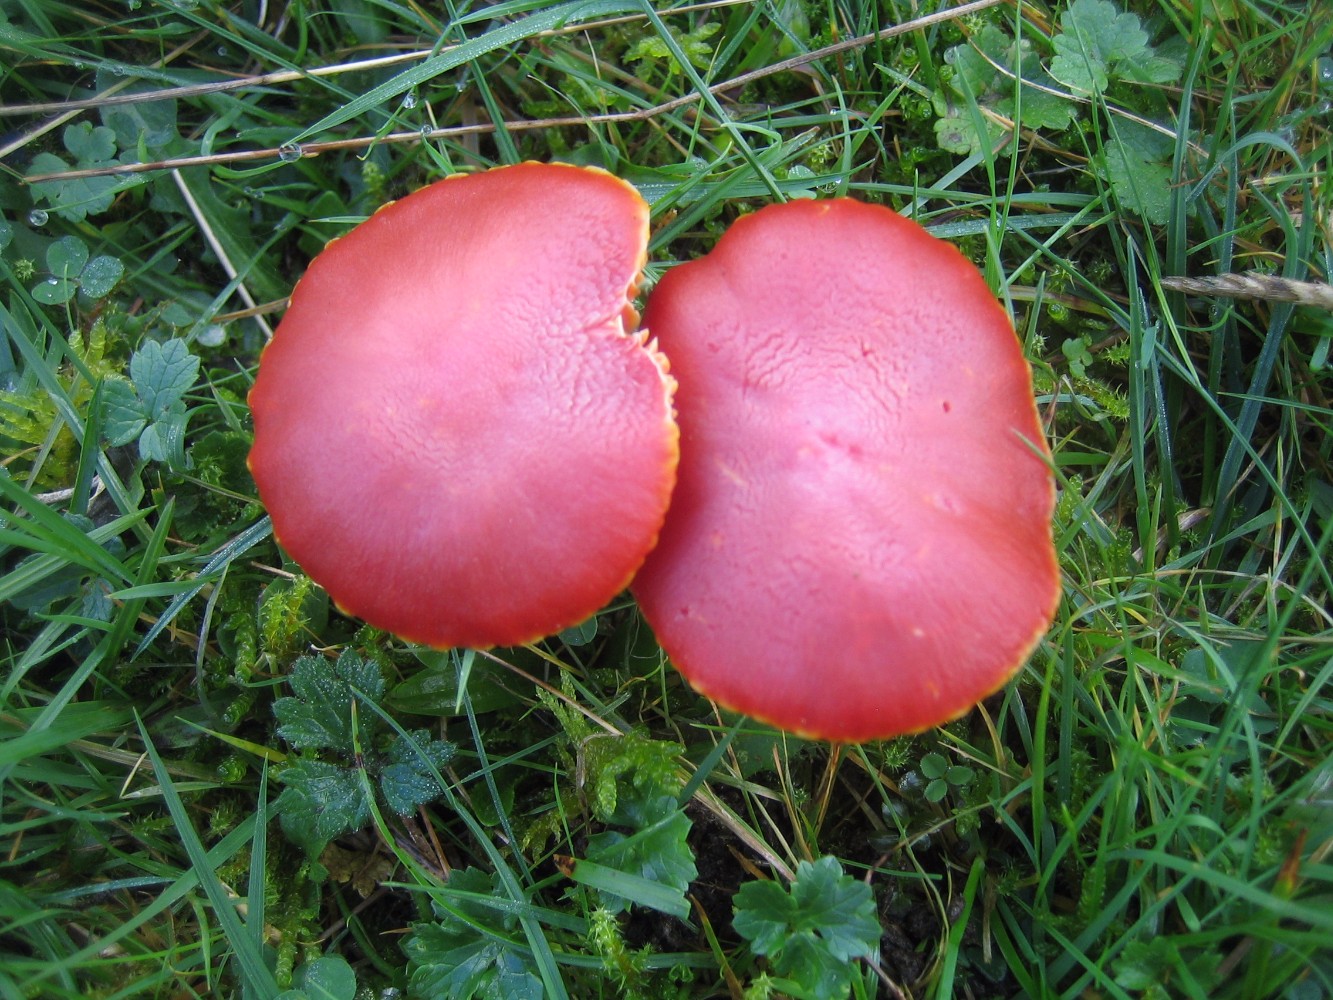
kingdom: Fungi
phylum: Basidiomycota
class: Agaricomycetes
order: Agaricales
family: Hygrophoraceae
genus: Hygrocybe
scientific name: Hygrocybe coccinea
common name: cinnober-vokshat
